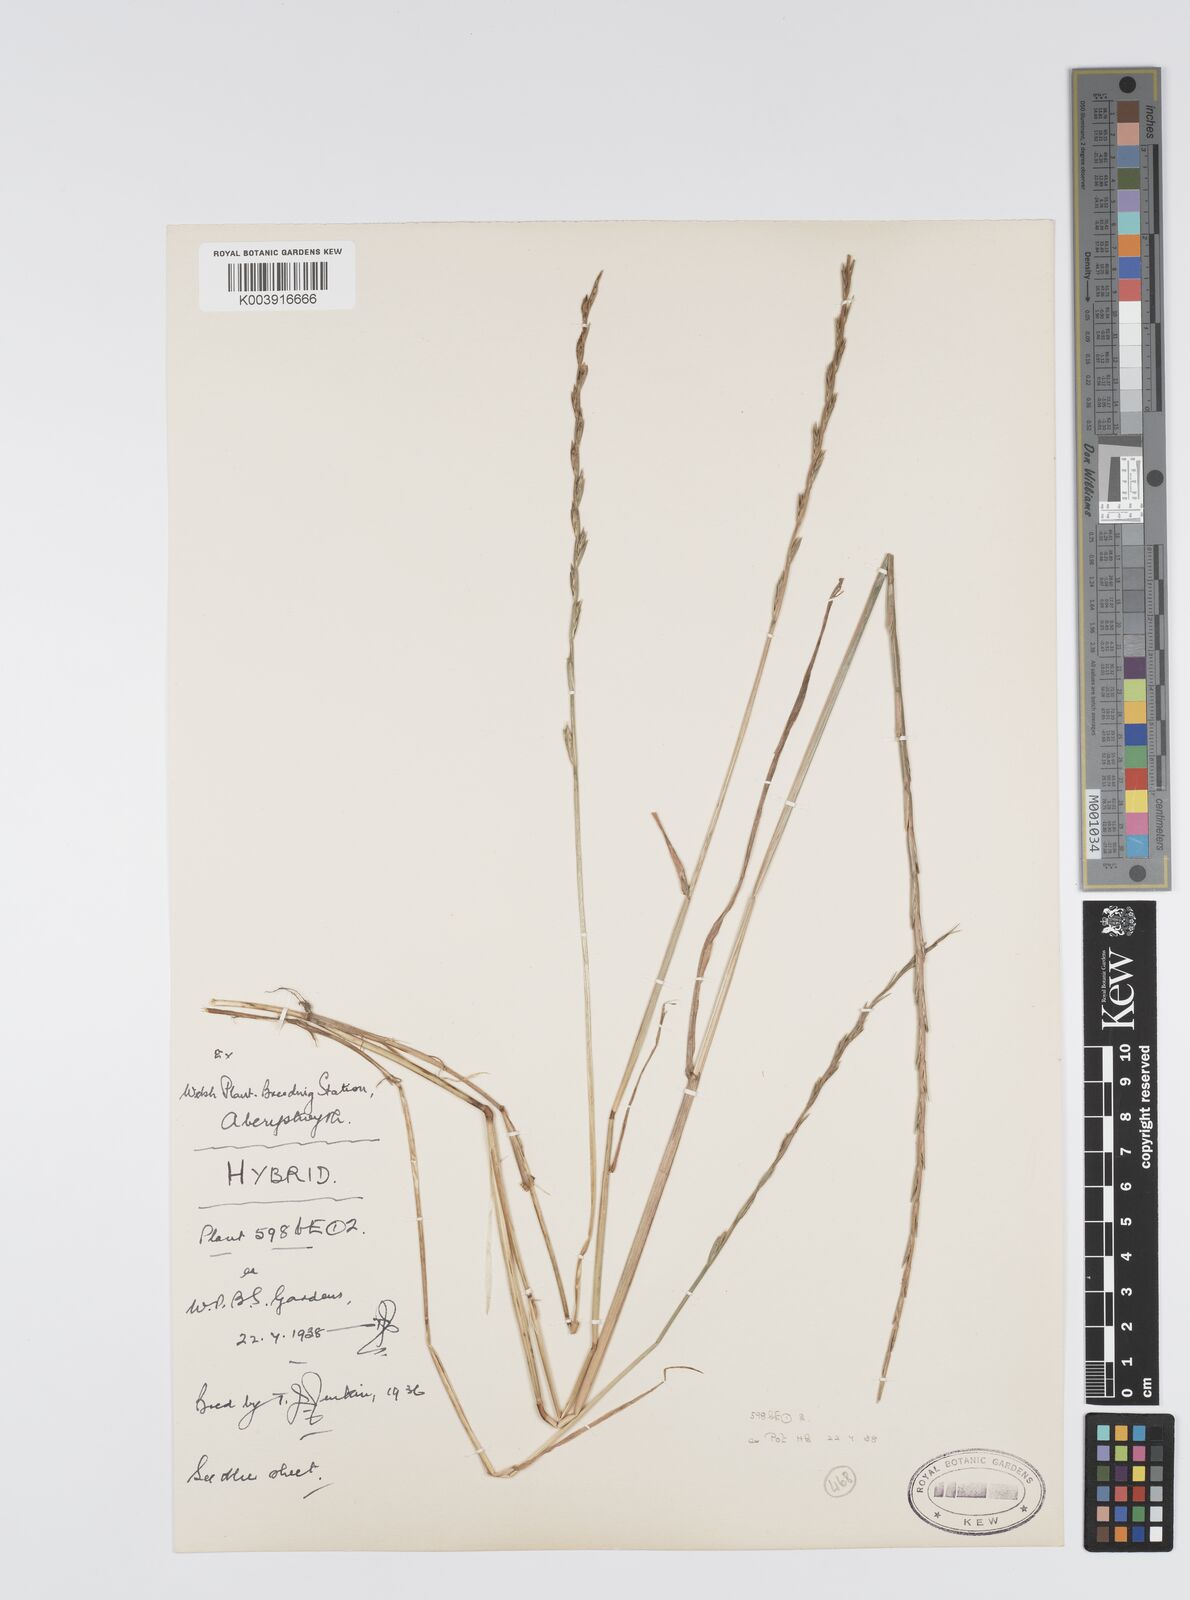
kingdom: Plantae
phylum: Tracheophyta
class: Liliopsida
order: Poales
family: Poaceae
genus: Lolium
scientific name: Lolium perenne
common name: Perennial ryegrass
